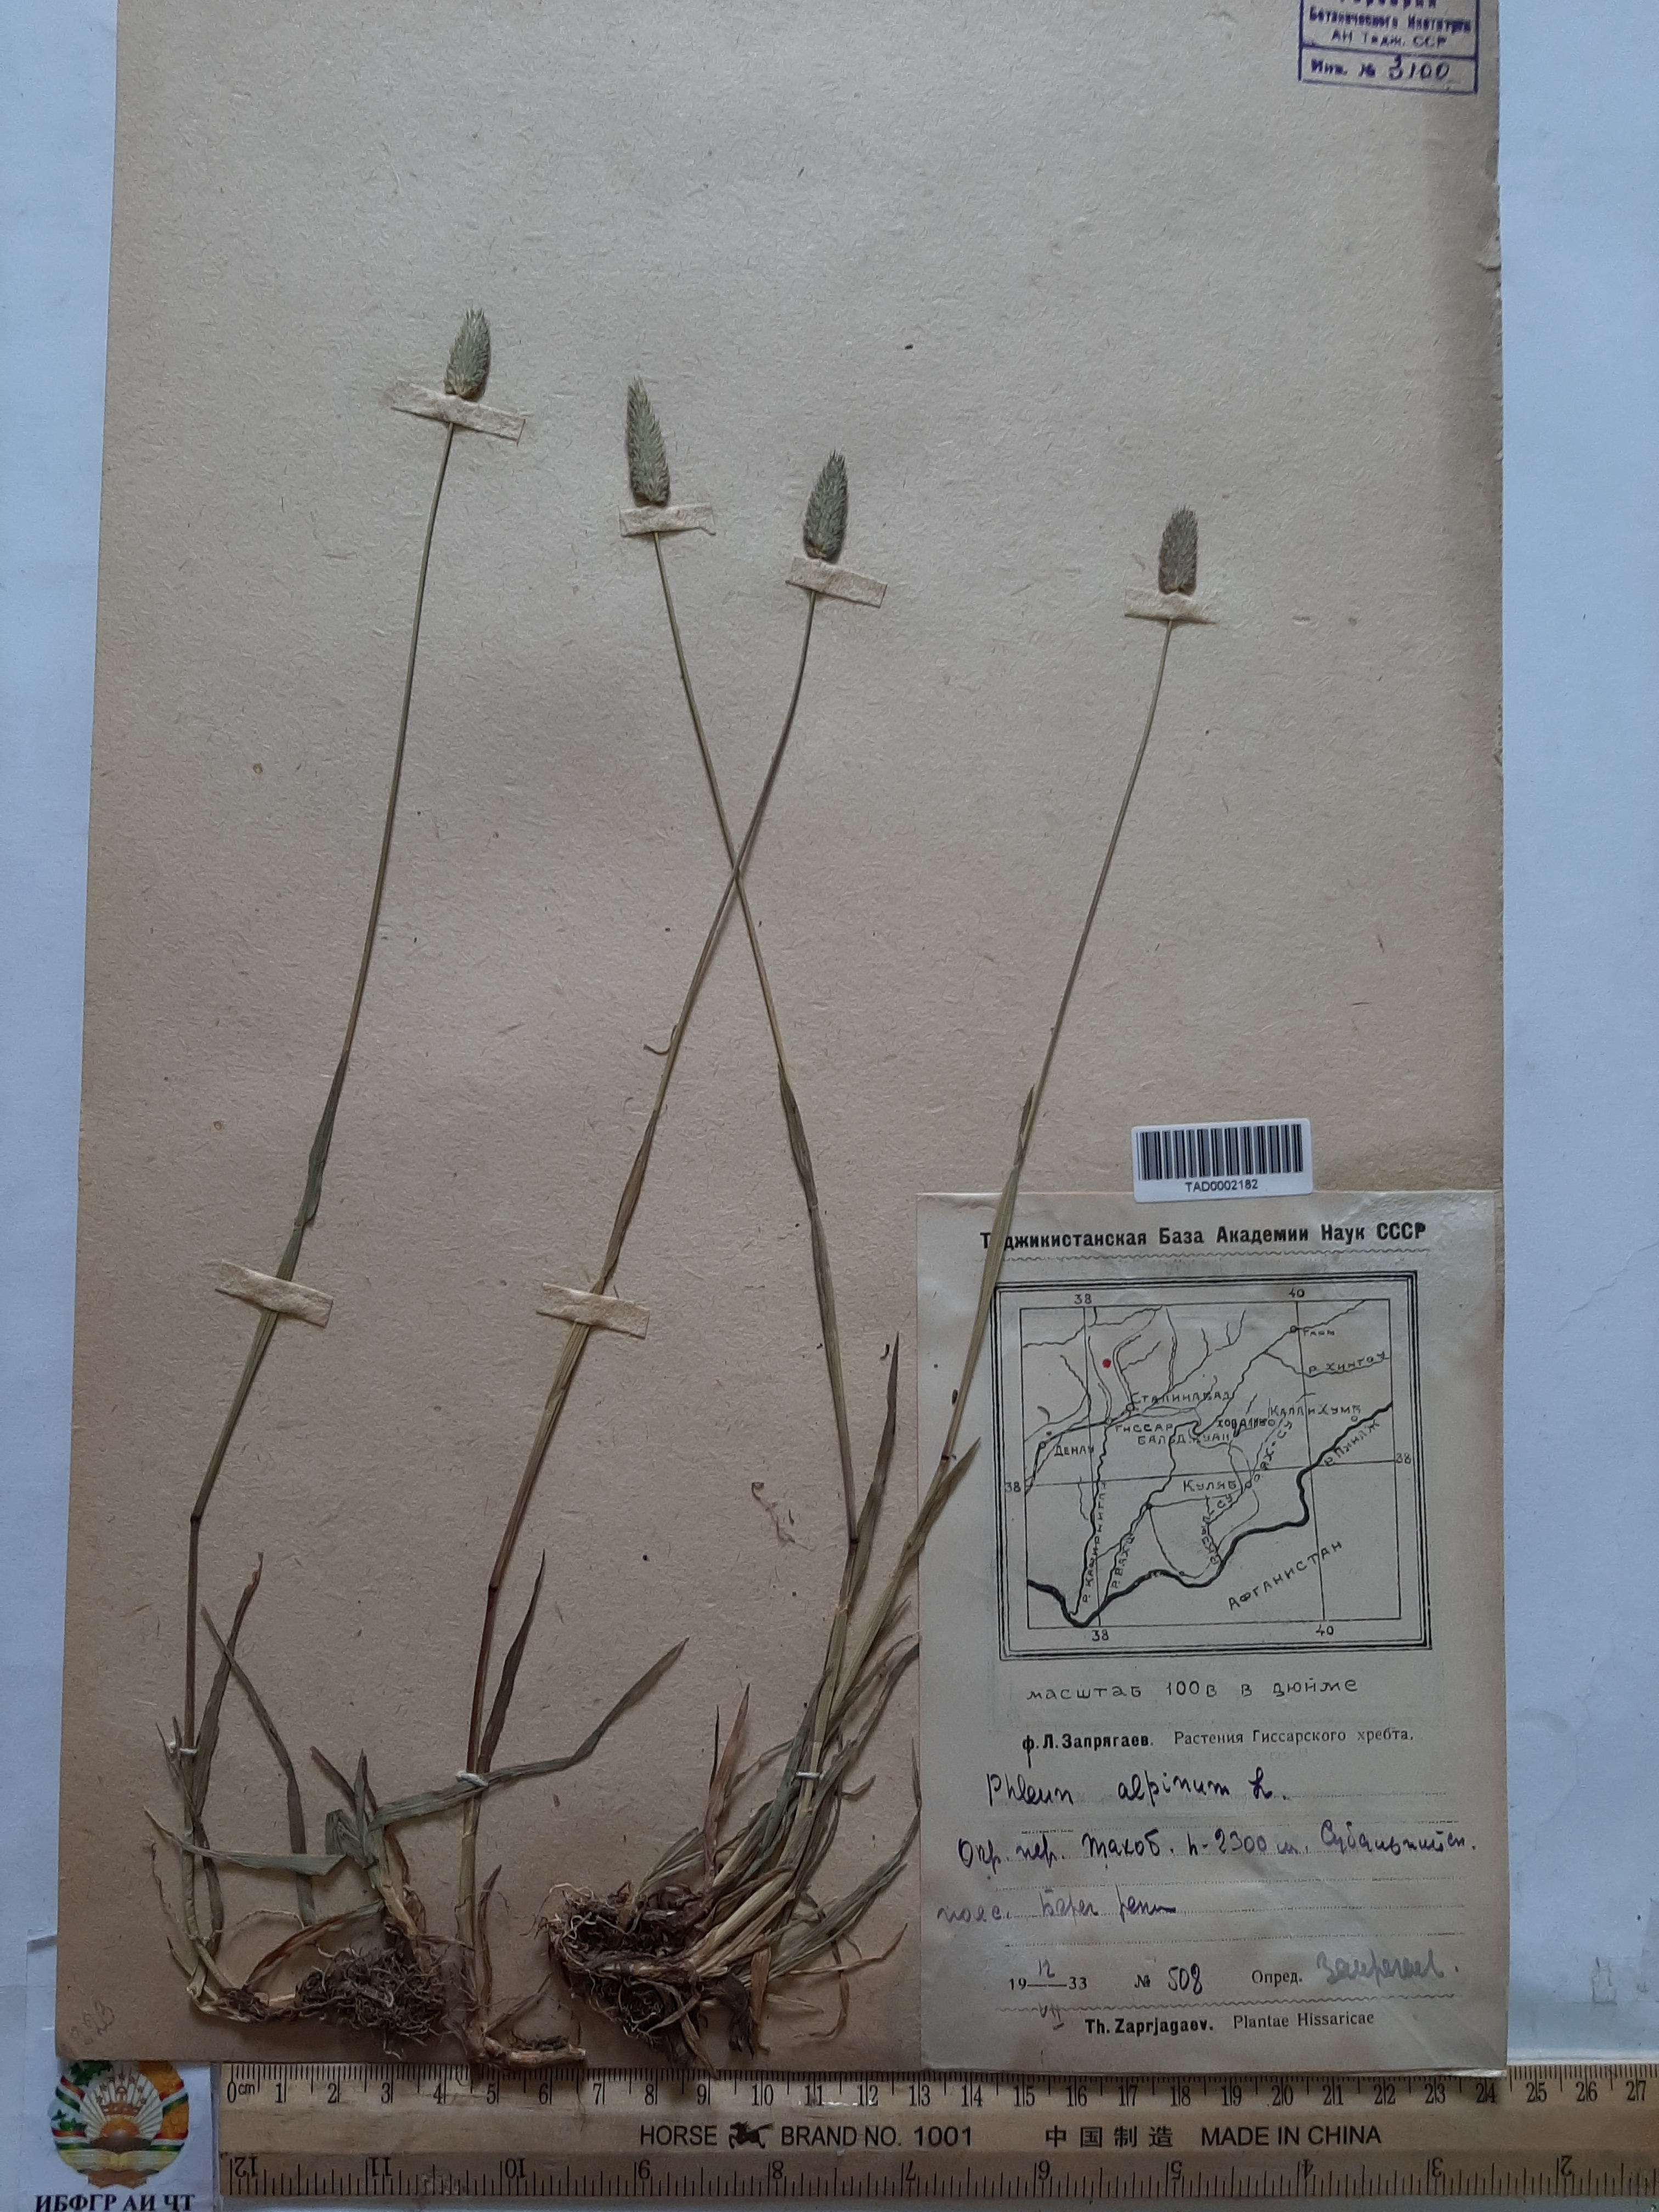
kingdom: Plantae
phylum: Tracheophyta
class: Liliopsida
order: Poales
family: Poaceae
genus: Phleum
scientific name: Phleum alpinum
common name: Alpine cat's-tail
